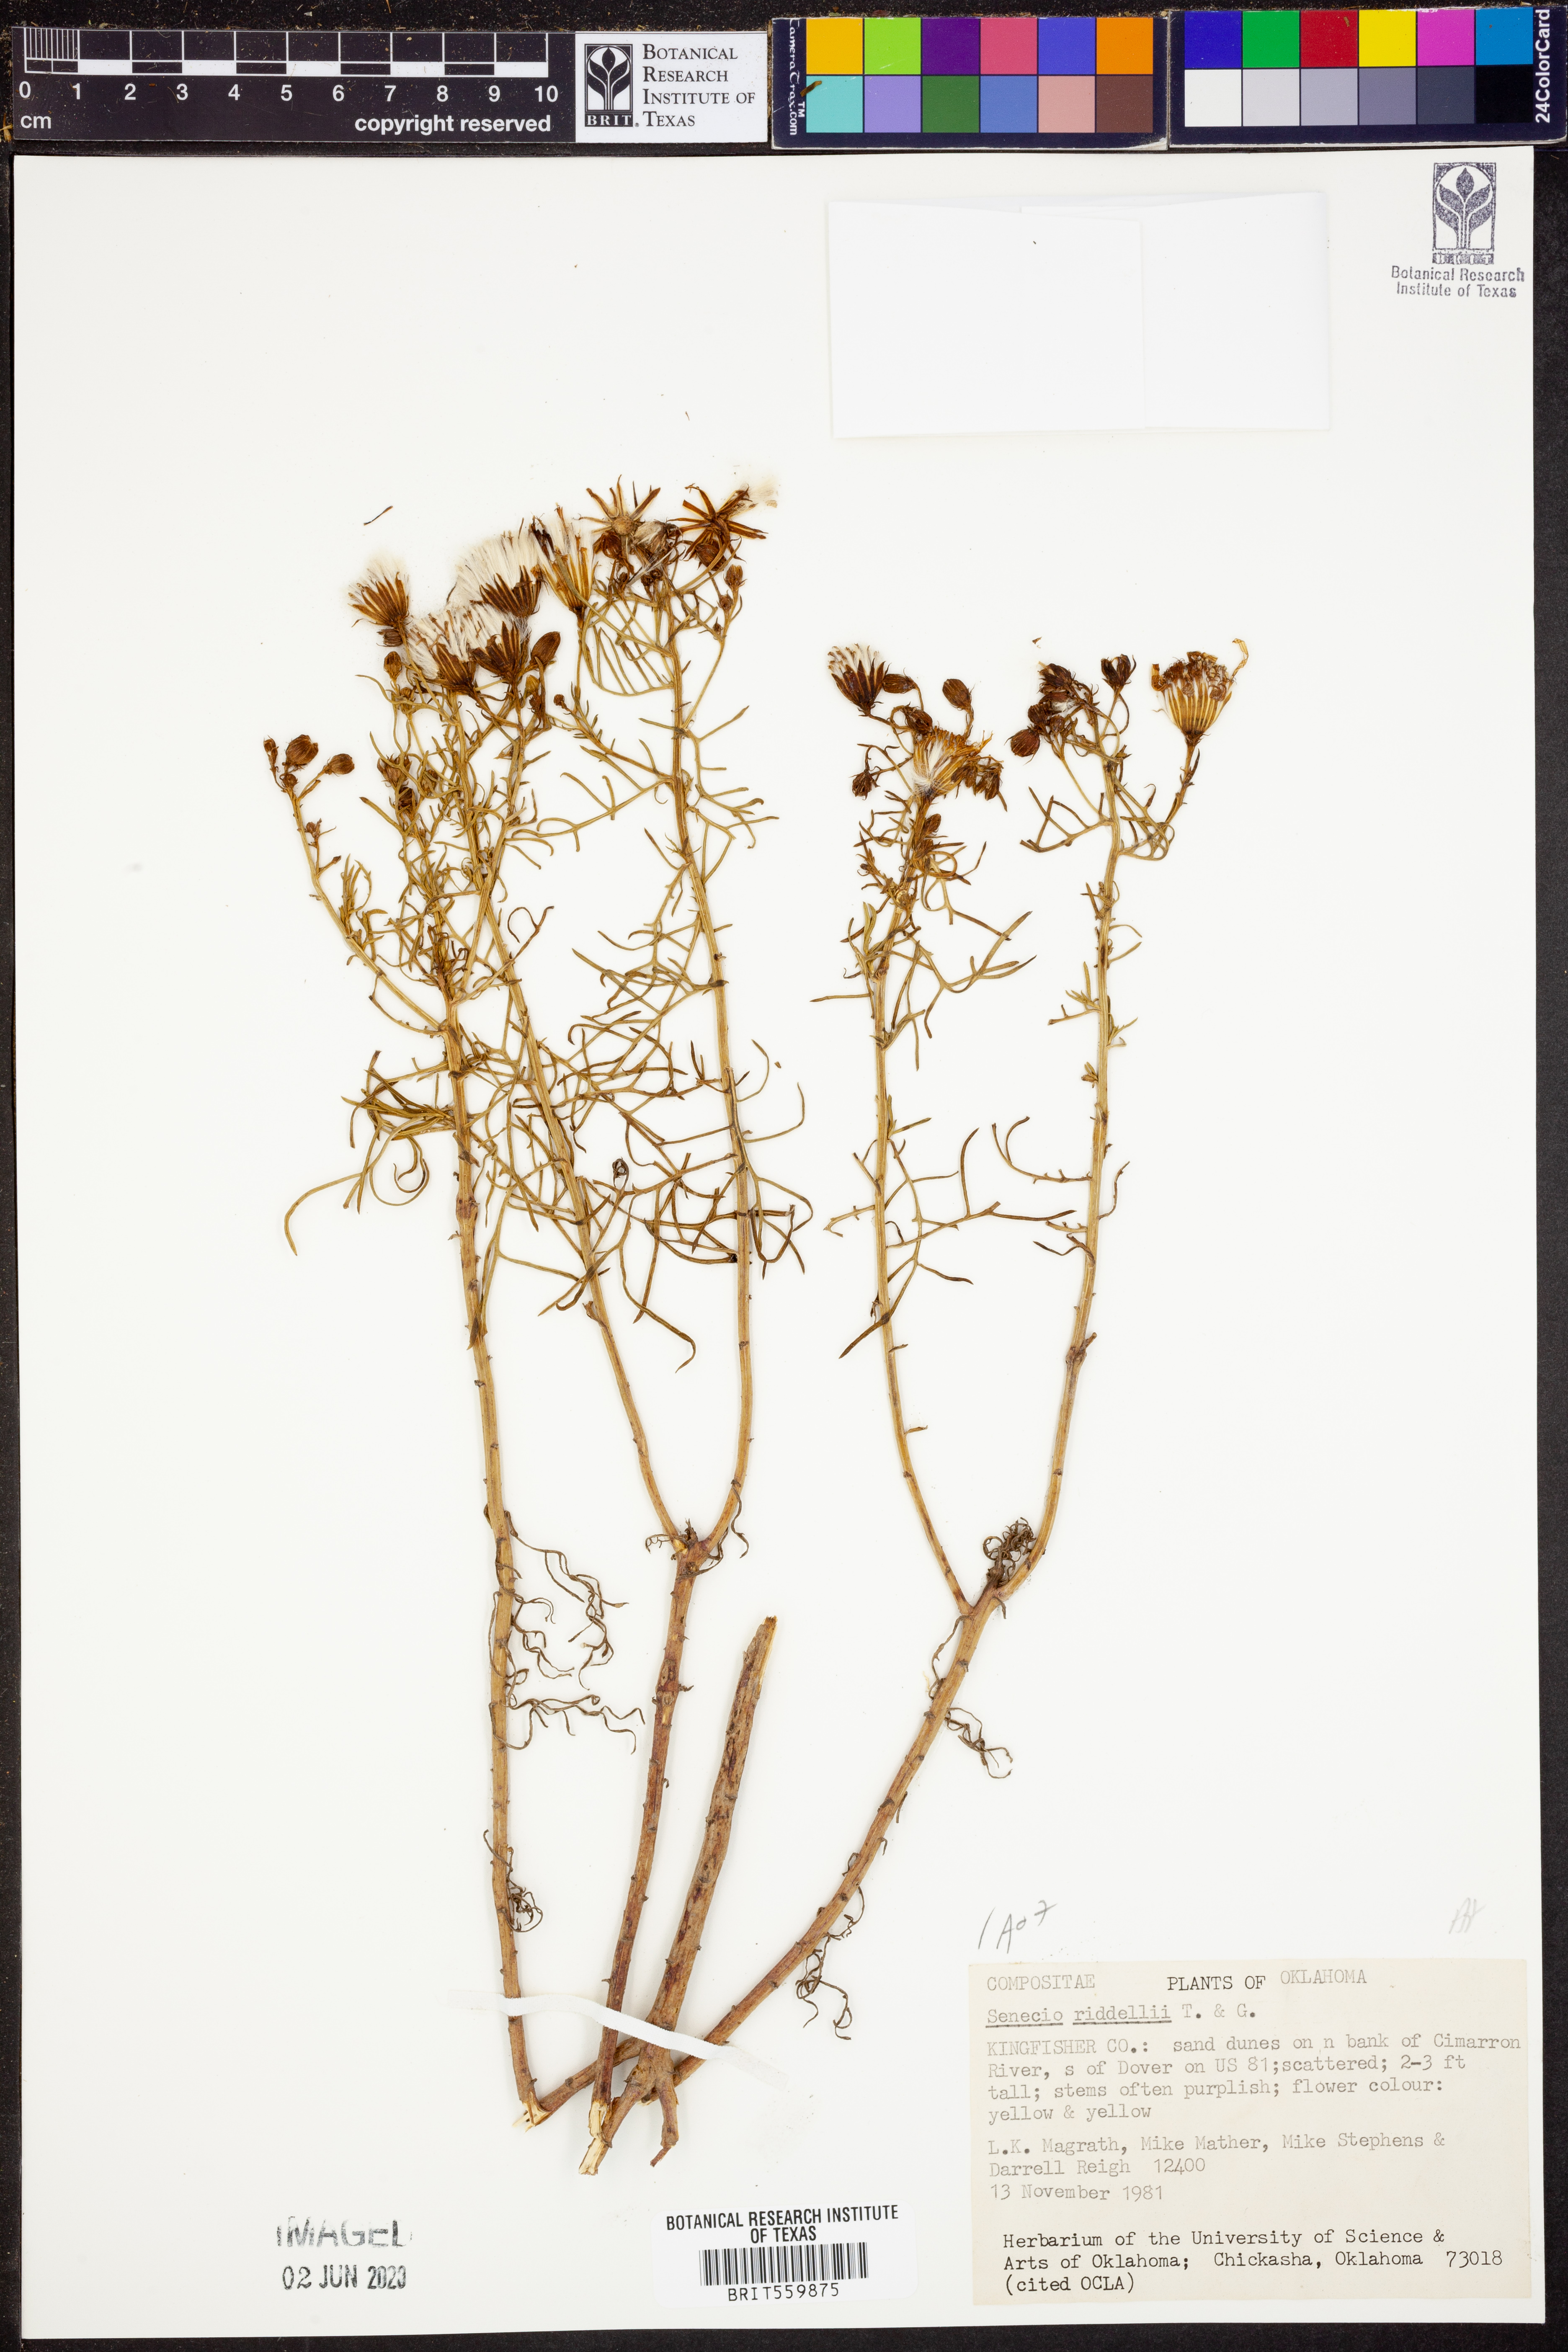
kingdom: Plantae
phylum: Tracheophyta
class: Magnoliopsida
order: Asterales
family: Asteraceae
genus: Senecio
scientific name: Senecio riddellii
